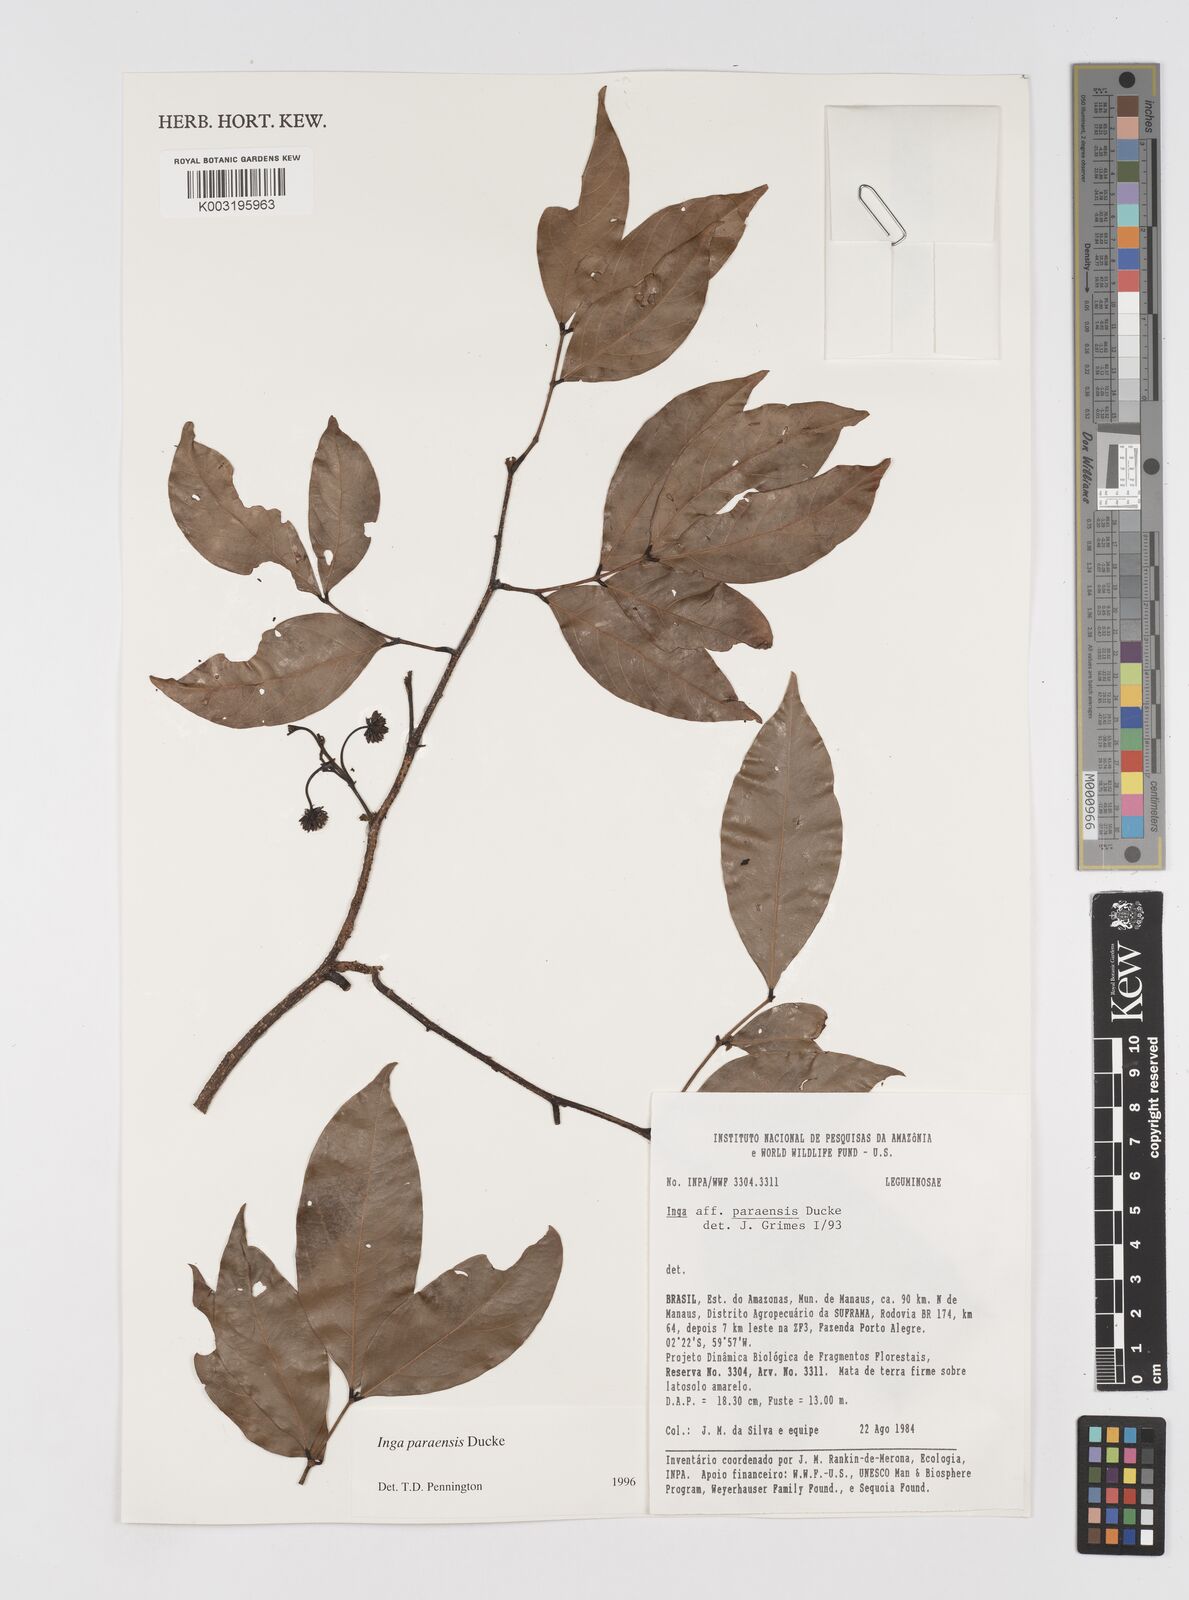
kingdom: Plantae
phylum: Tracheophyta
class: Magnoliopsida
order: Fabales
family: Fabaceae
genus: Inga
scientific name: Inga paraensis
